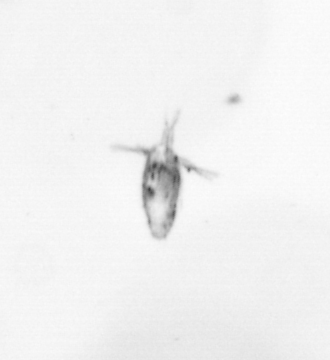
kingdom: Animalia
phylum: Arthropoda
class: Copepoda
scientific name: Copepoda
